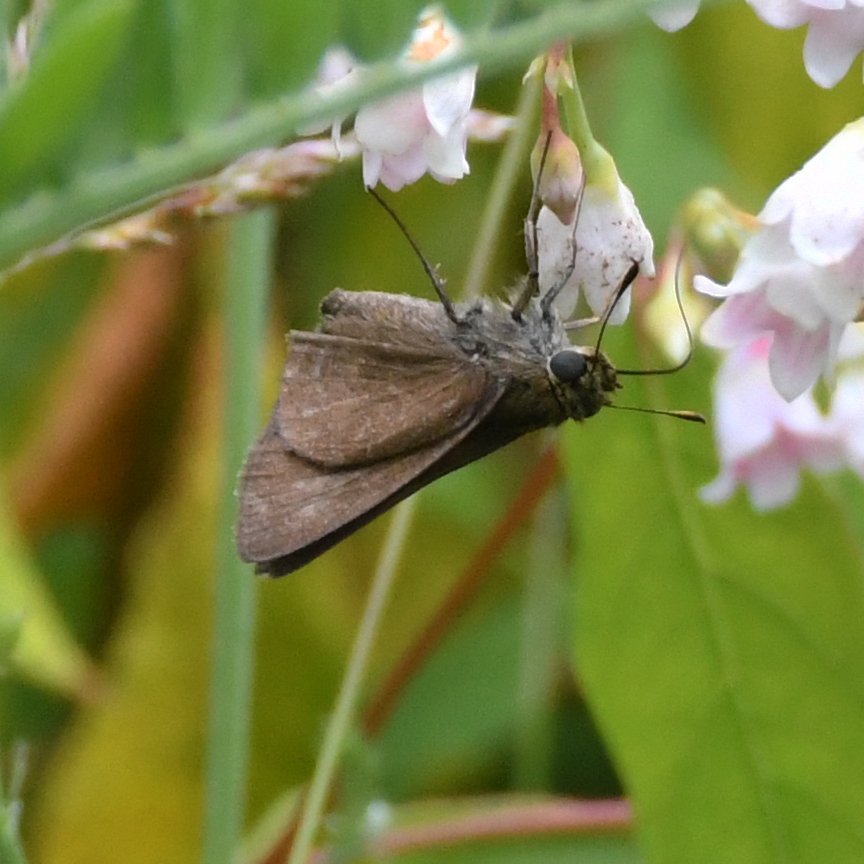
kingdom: Animalia
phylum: Arthropoda
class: Insecta
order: Lepidoptera
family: Hesperiidae
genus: Euphyes
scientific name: Euphyes vestris
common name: Dun Skipper
